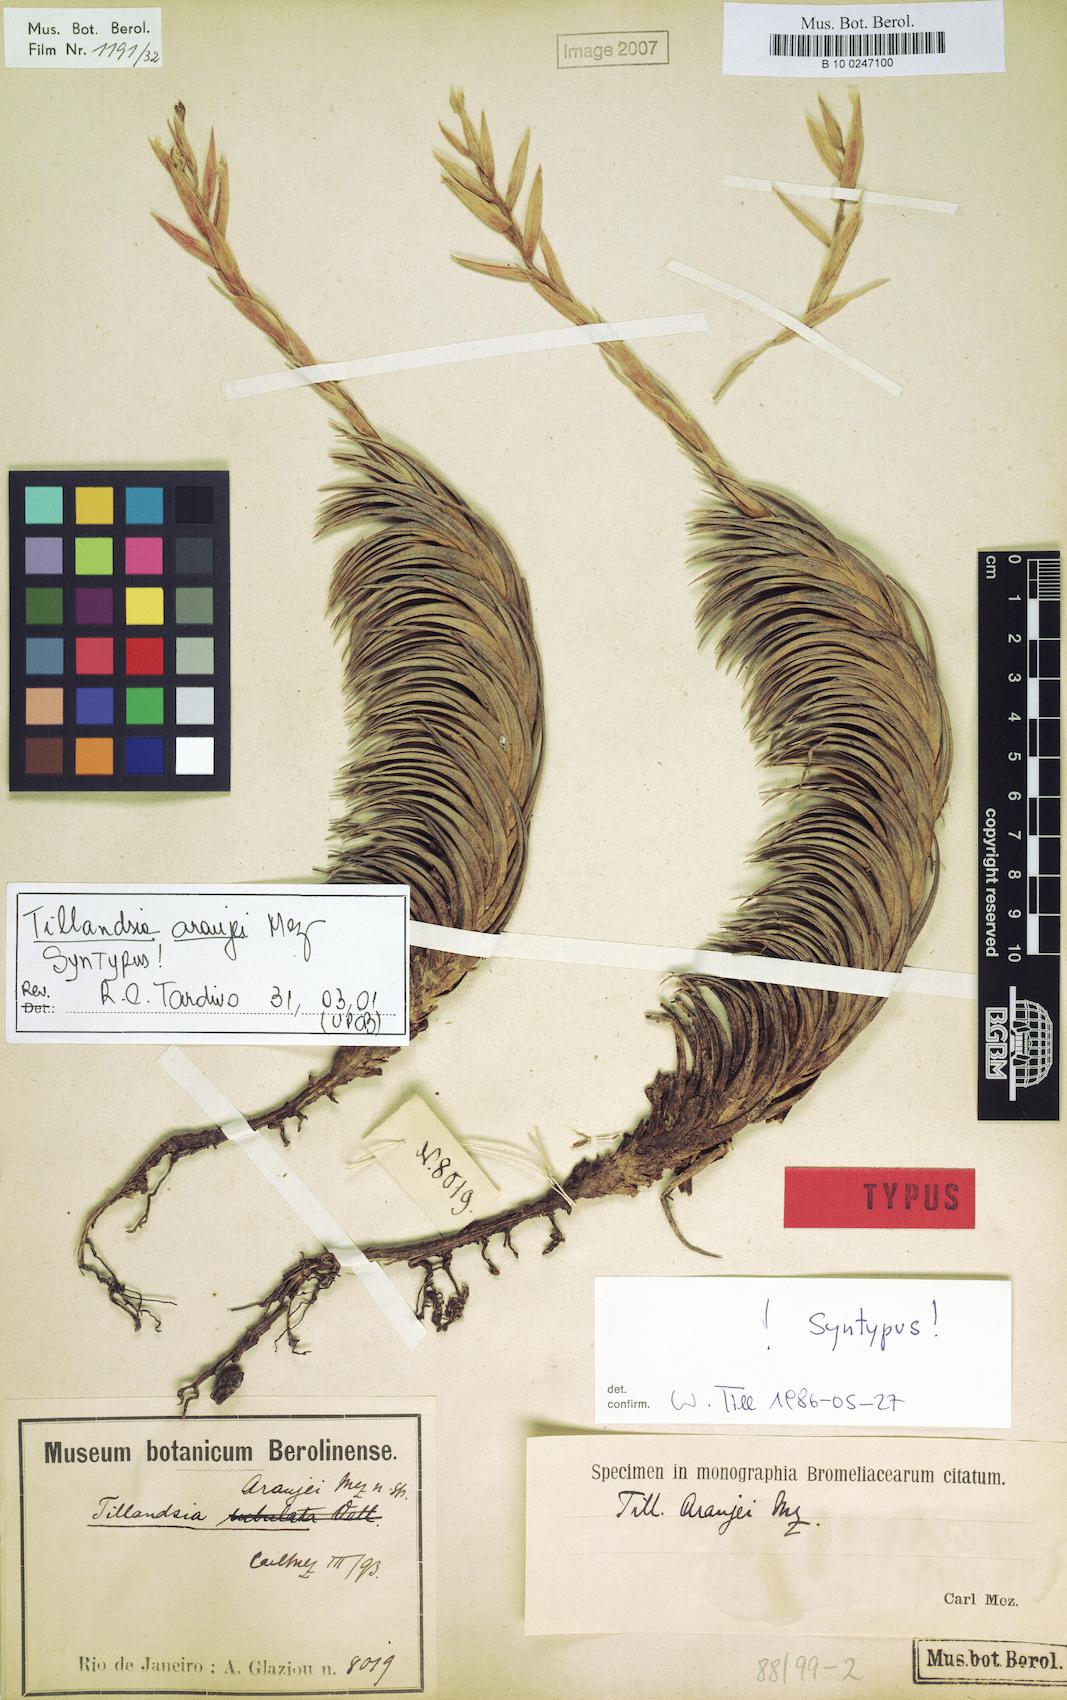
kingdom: Plantae
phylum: Tracheophyta
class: Liliopsida
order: Poales
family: Bromeliaceae
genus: Tillandsia
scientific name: Tillandsia araujei
